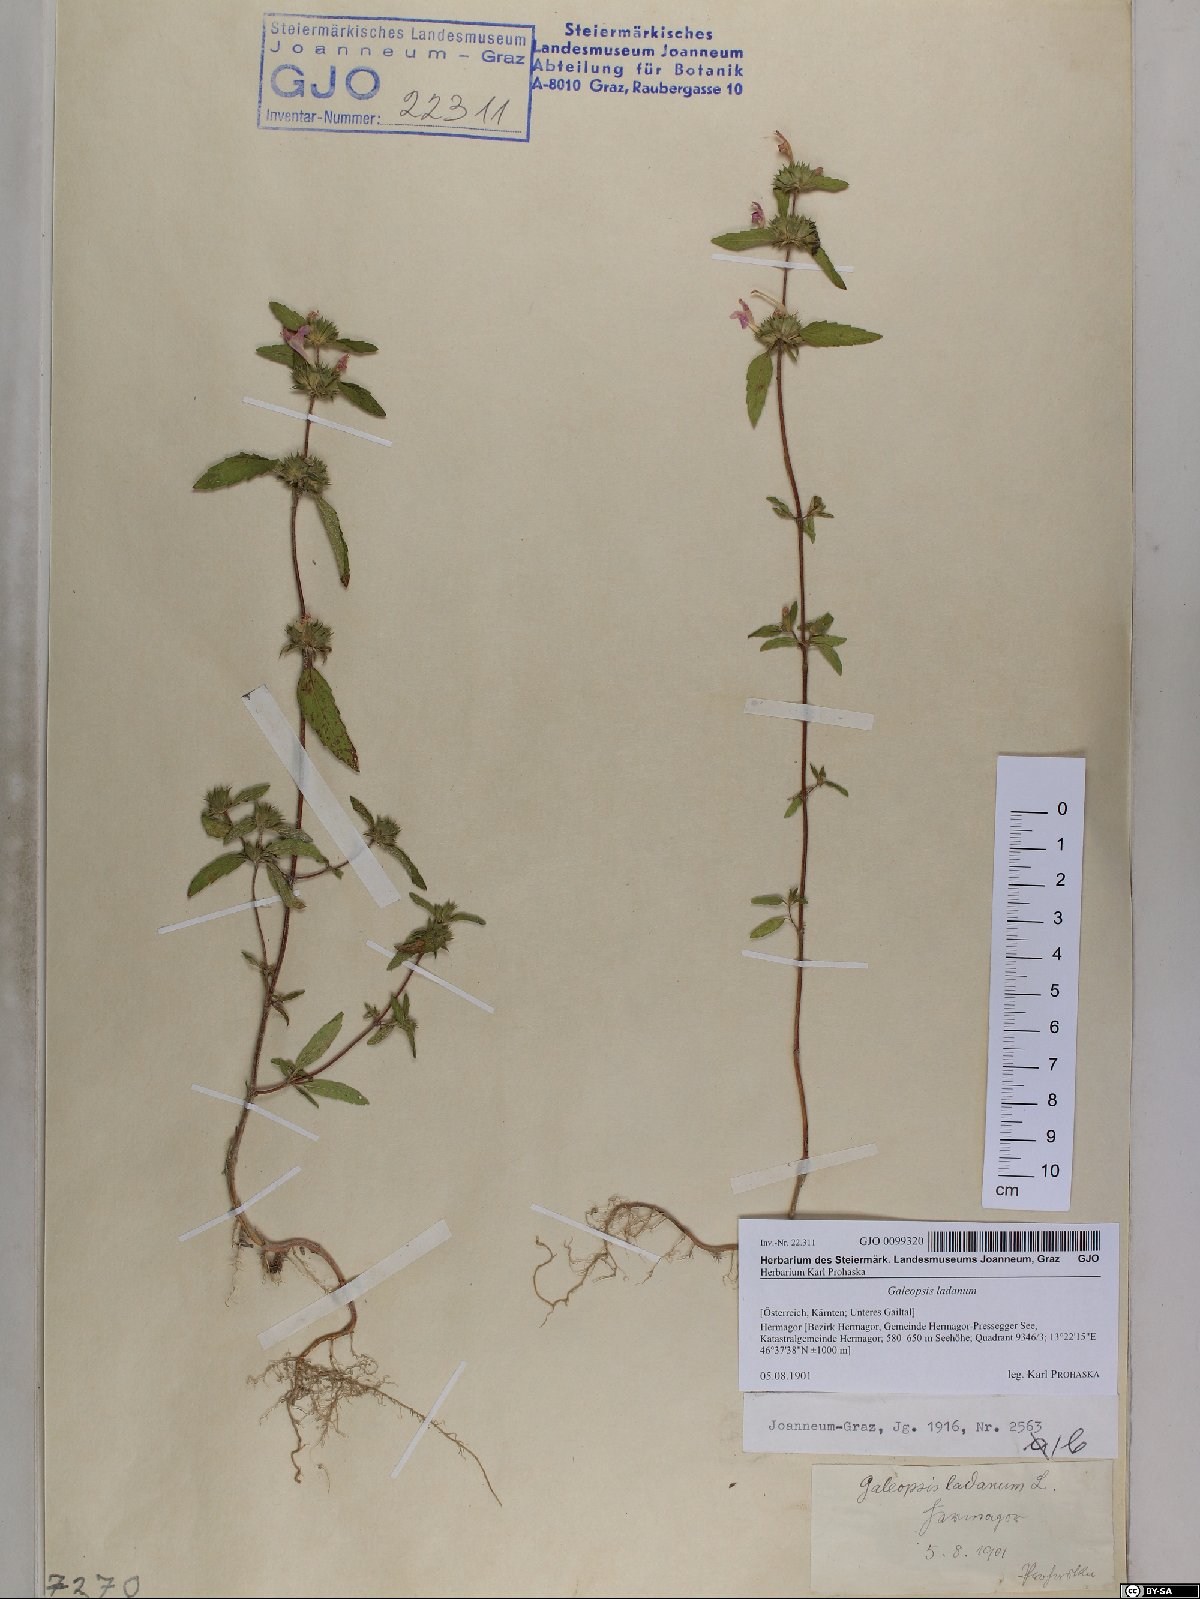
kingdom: Plantae
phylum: Tracheophyta
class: Magnoliopsida
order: Lamiales
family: Lamiaceae
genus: Galeopsis
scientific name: Galeopsis ladanum
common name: Broad-leaved hemp-nettle
